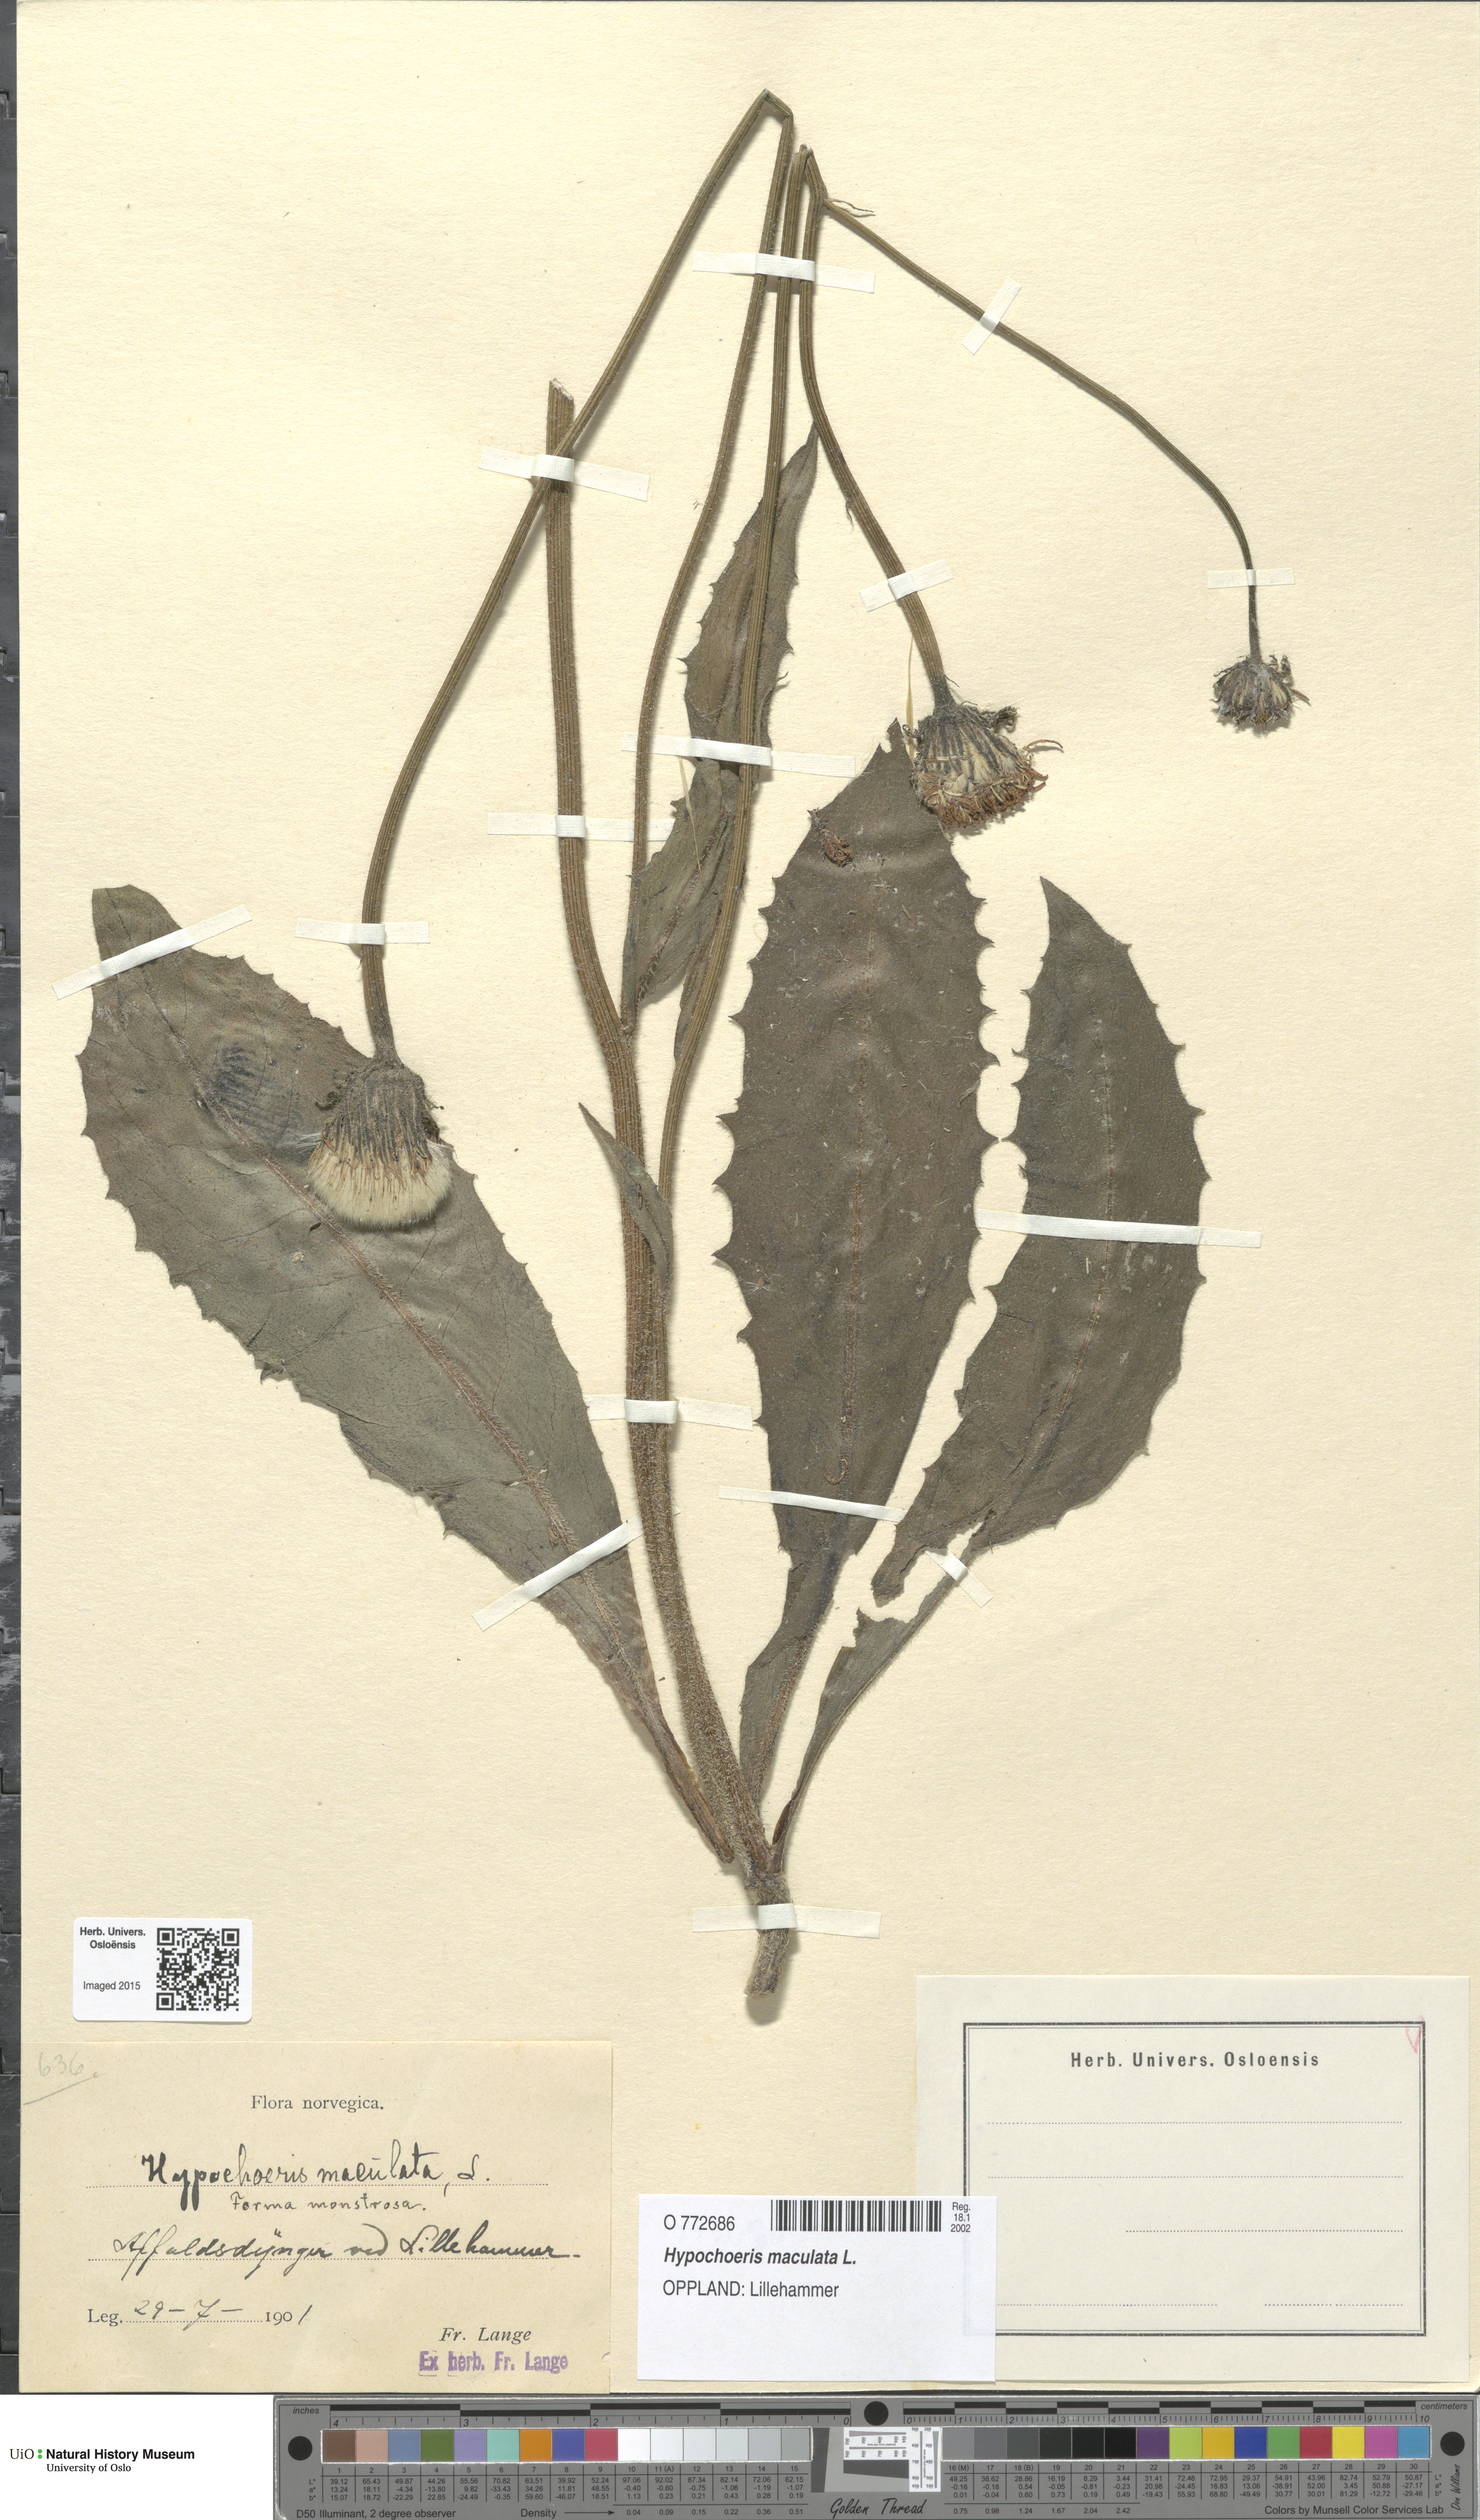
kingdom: Plantae
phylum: Tracheophyta
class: Magnoliopsida
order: Asterales
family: Asteraceae
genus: Trommsdorffia
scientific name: Trommsdorffia maculata
